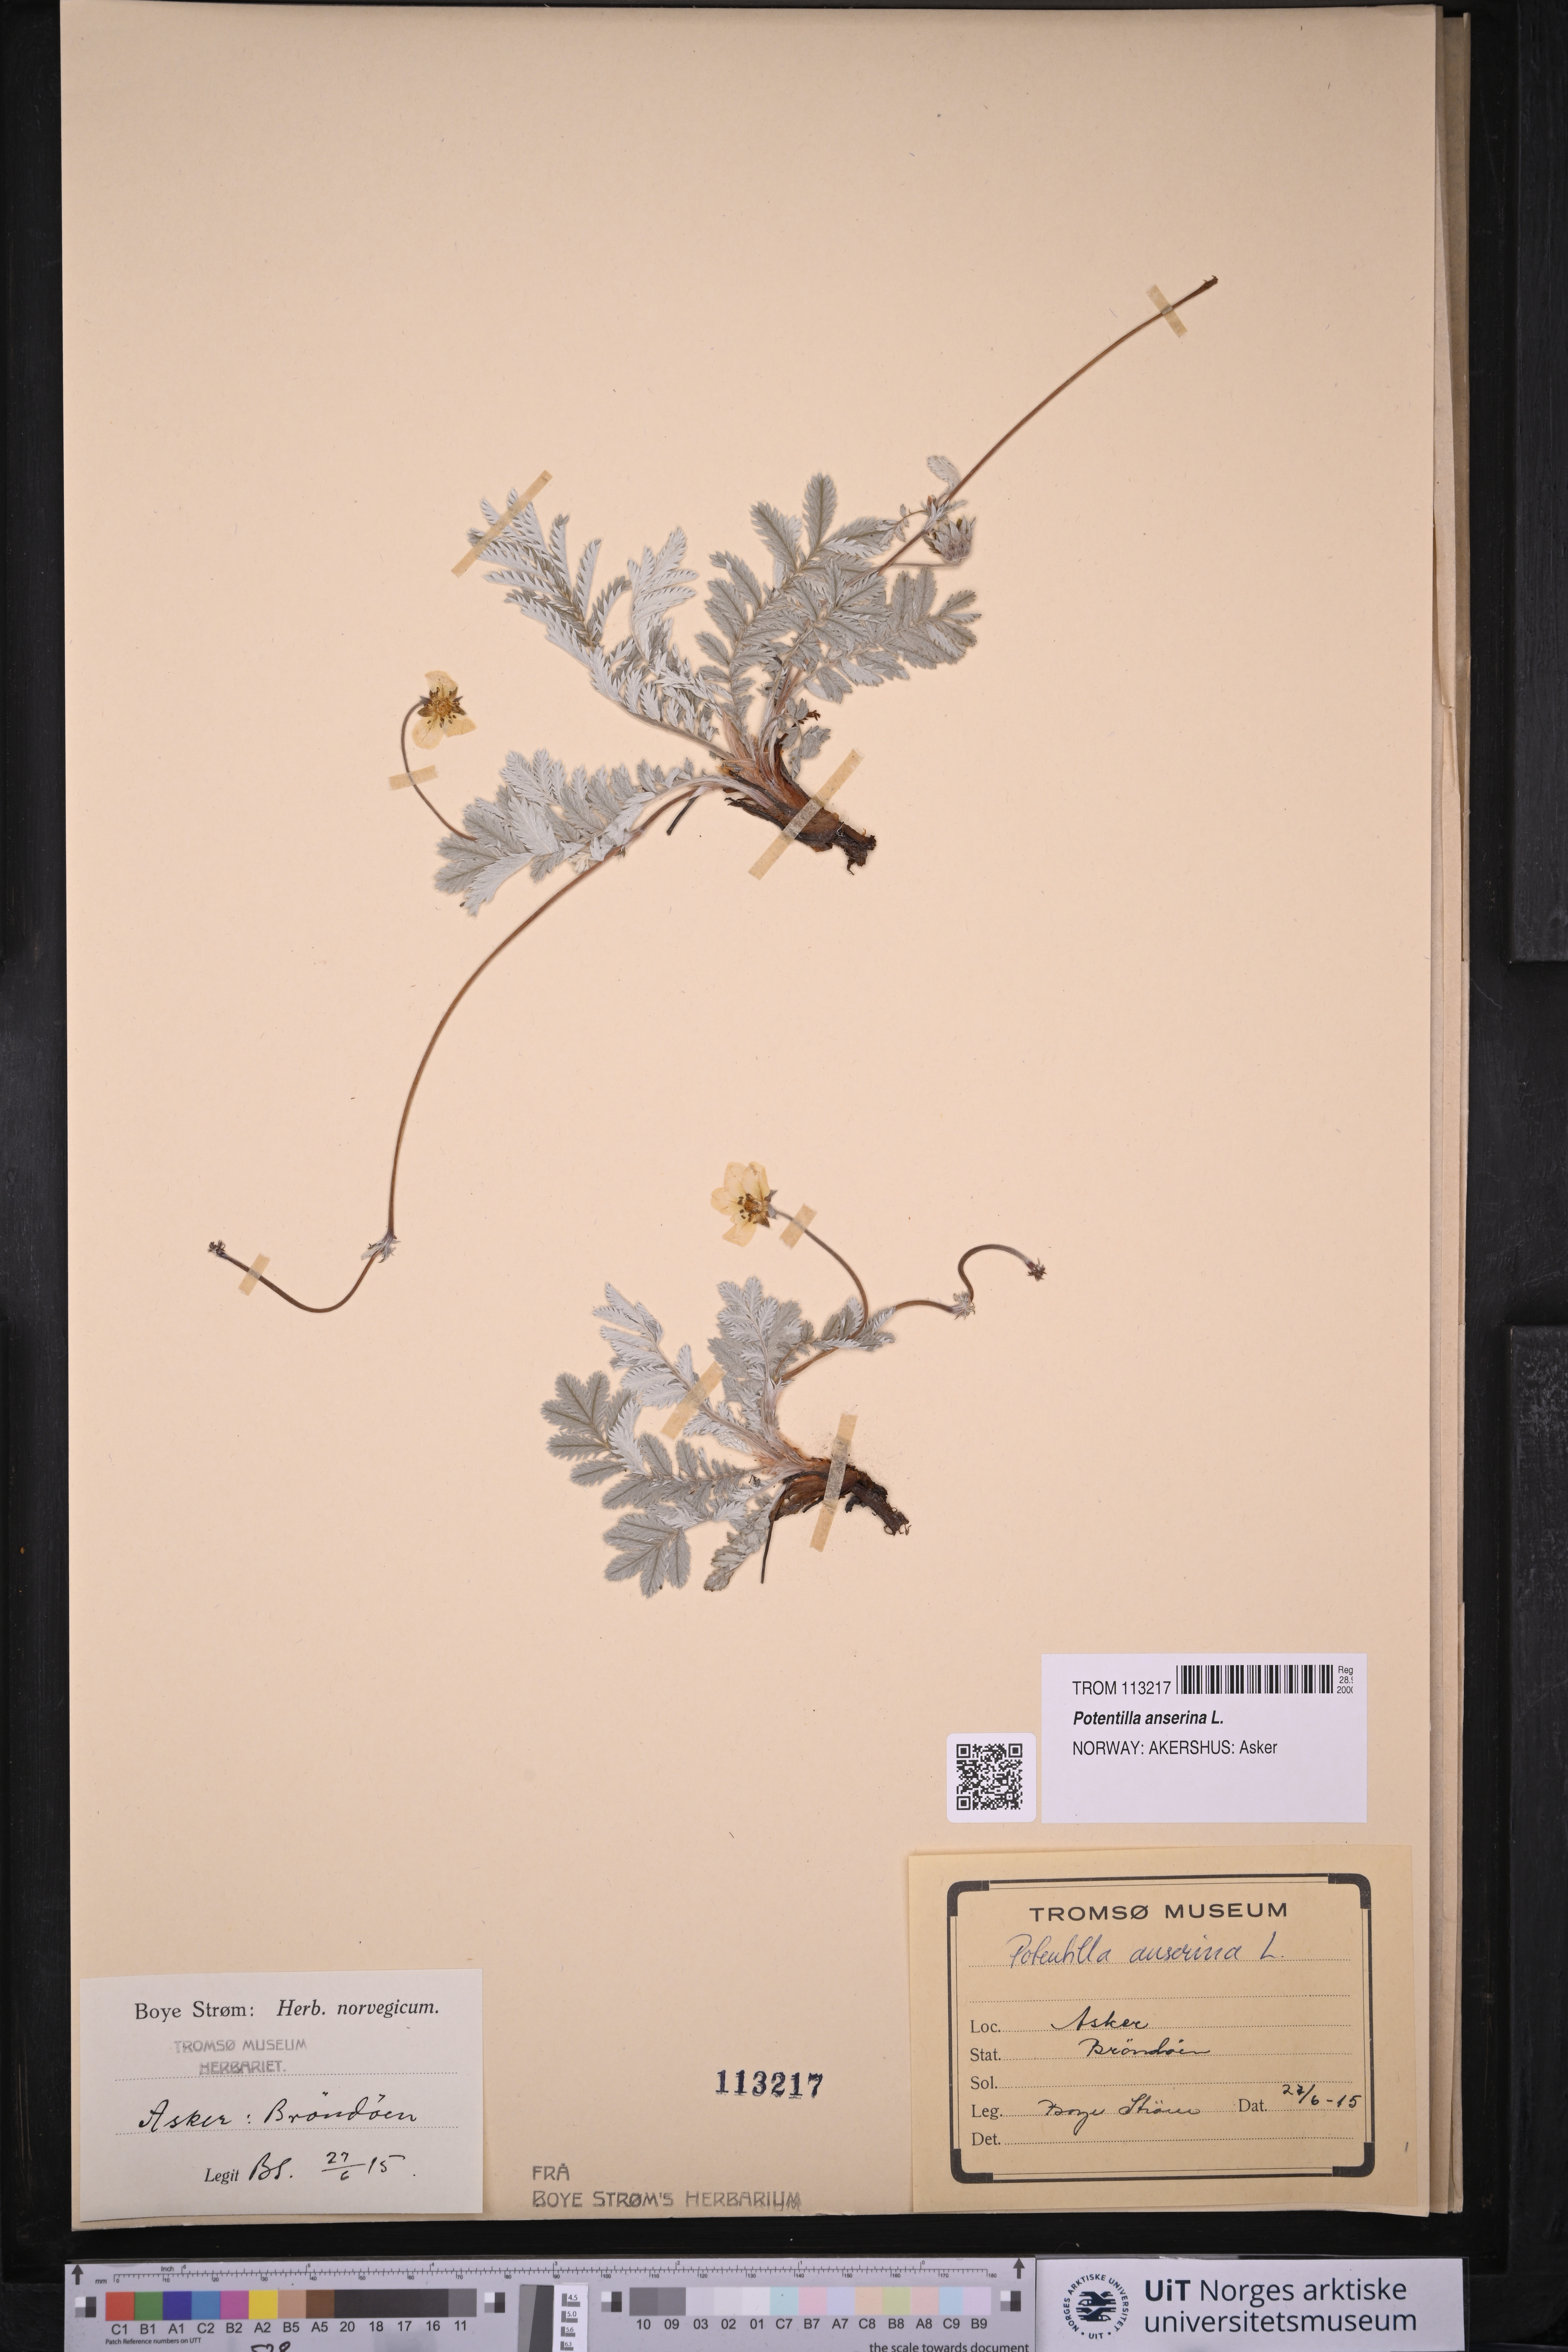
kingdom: Plantae
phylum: Tracheophyta
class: Magnoliopsida
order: Rosales
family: Rosaceae
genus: Argentina
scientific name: Argentina anserina
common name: Common silverweed
